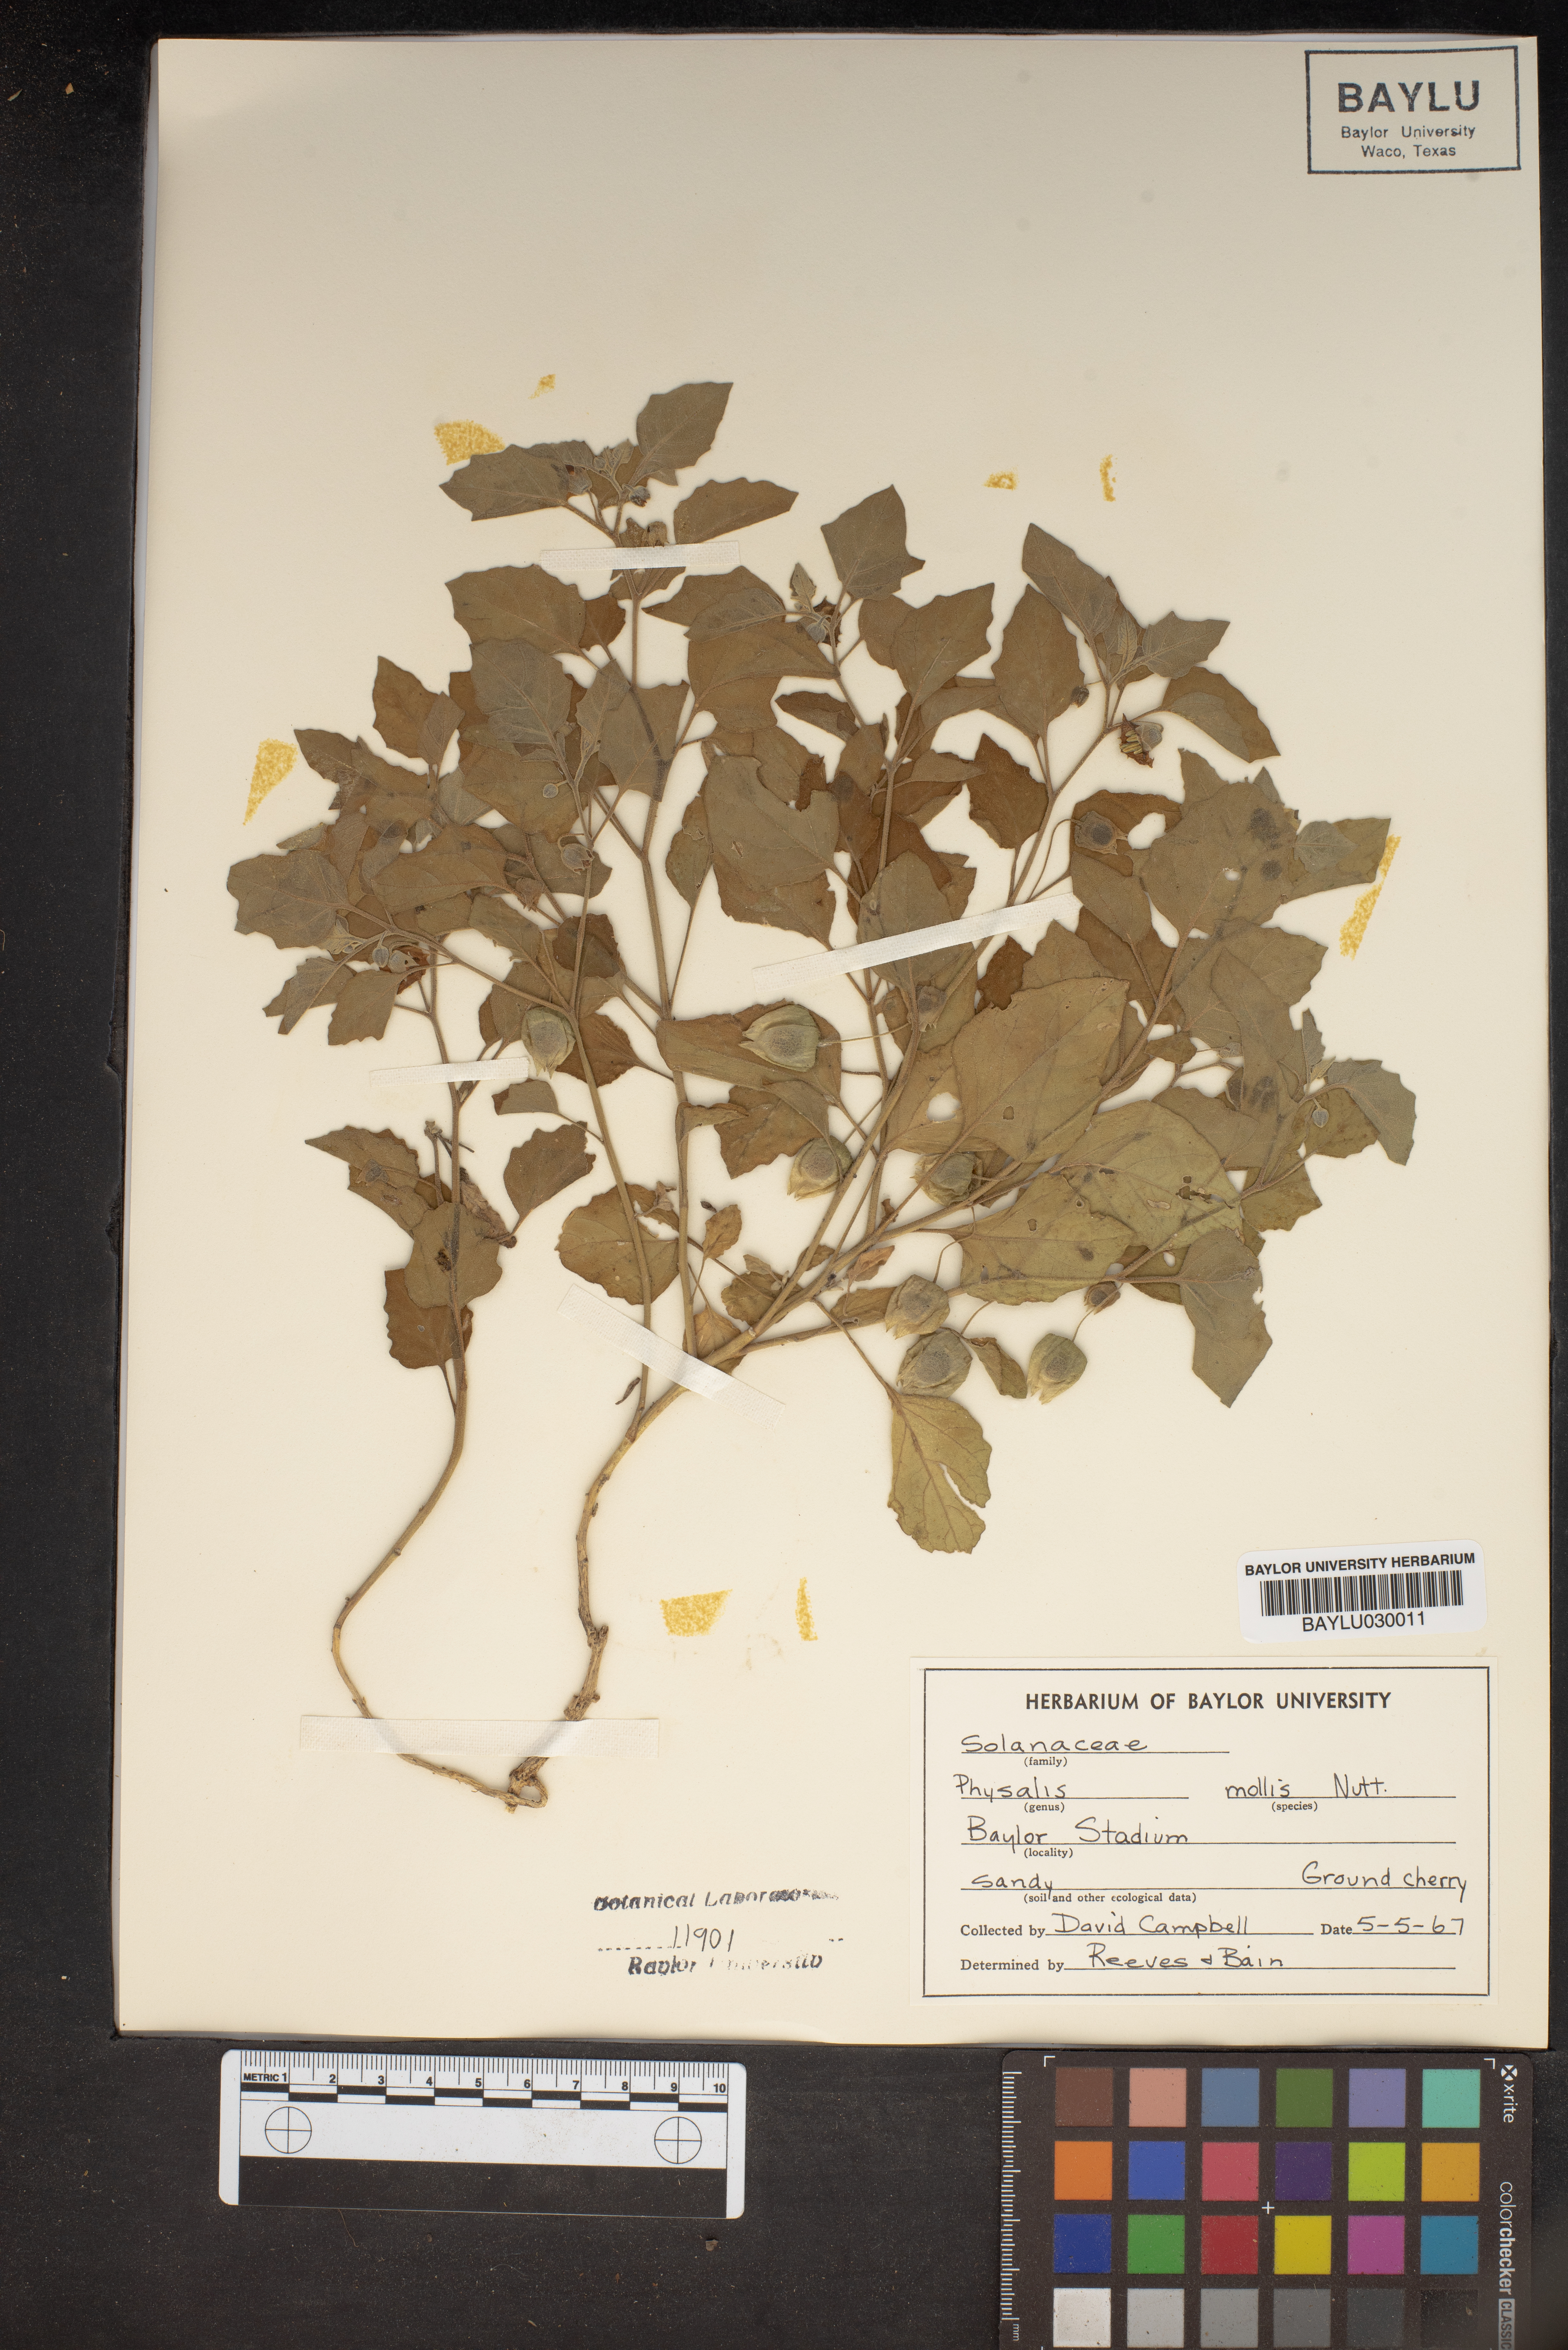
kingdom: Plantae
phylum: Tracheophyta
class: Magnoliopsida
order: Solanales
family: Solanaceae
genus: Physalis
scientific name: Physalis mollis
